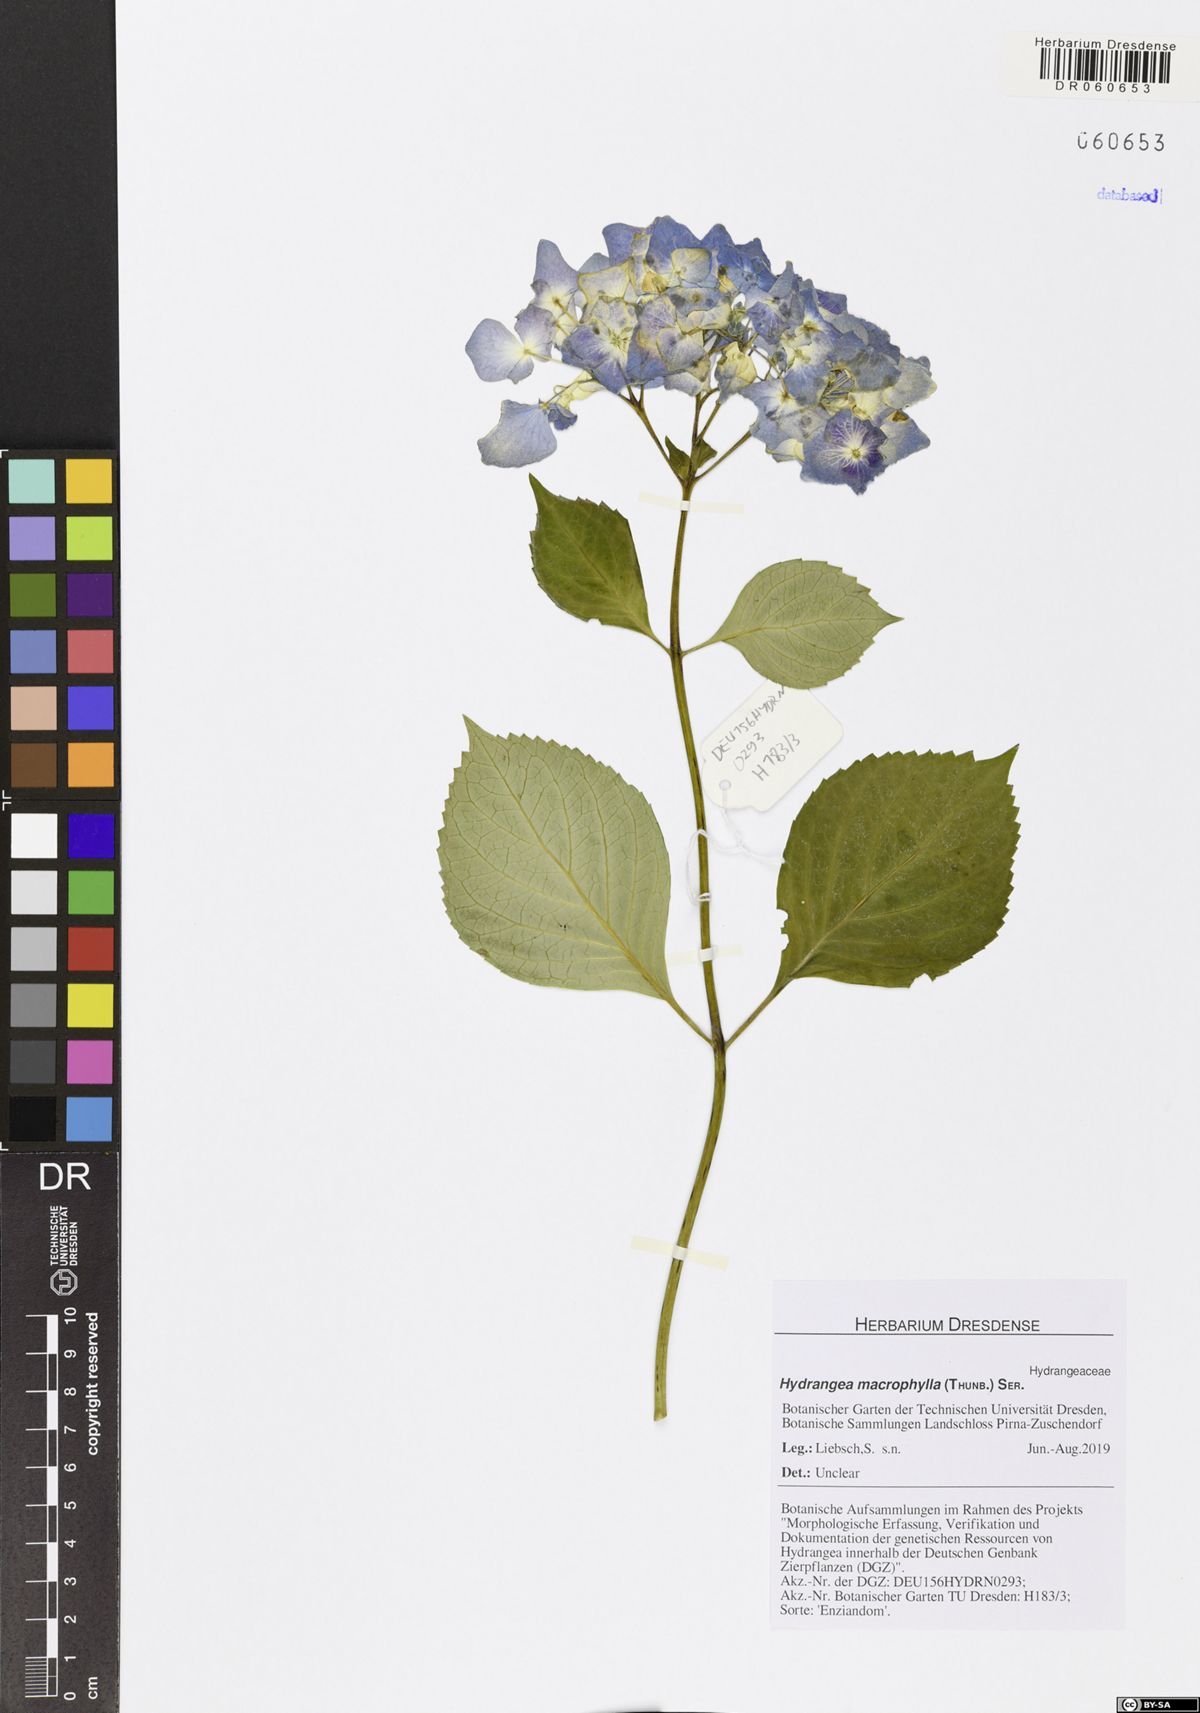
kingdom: Plantae
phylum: Tracheophyta
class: Magnoliopsida
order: Cornales
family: Hydrangeaceae
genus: Hydrangea
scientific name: Hydrangea macrophylla
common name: Hydrangea
